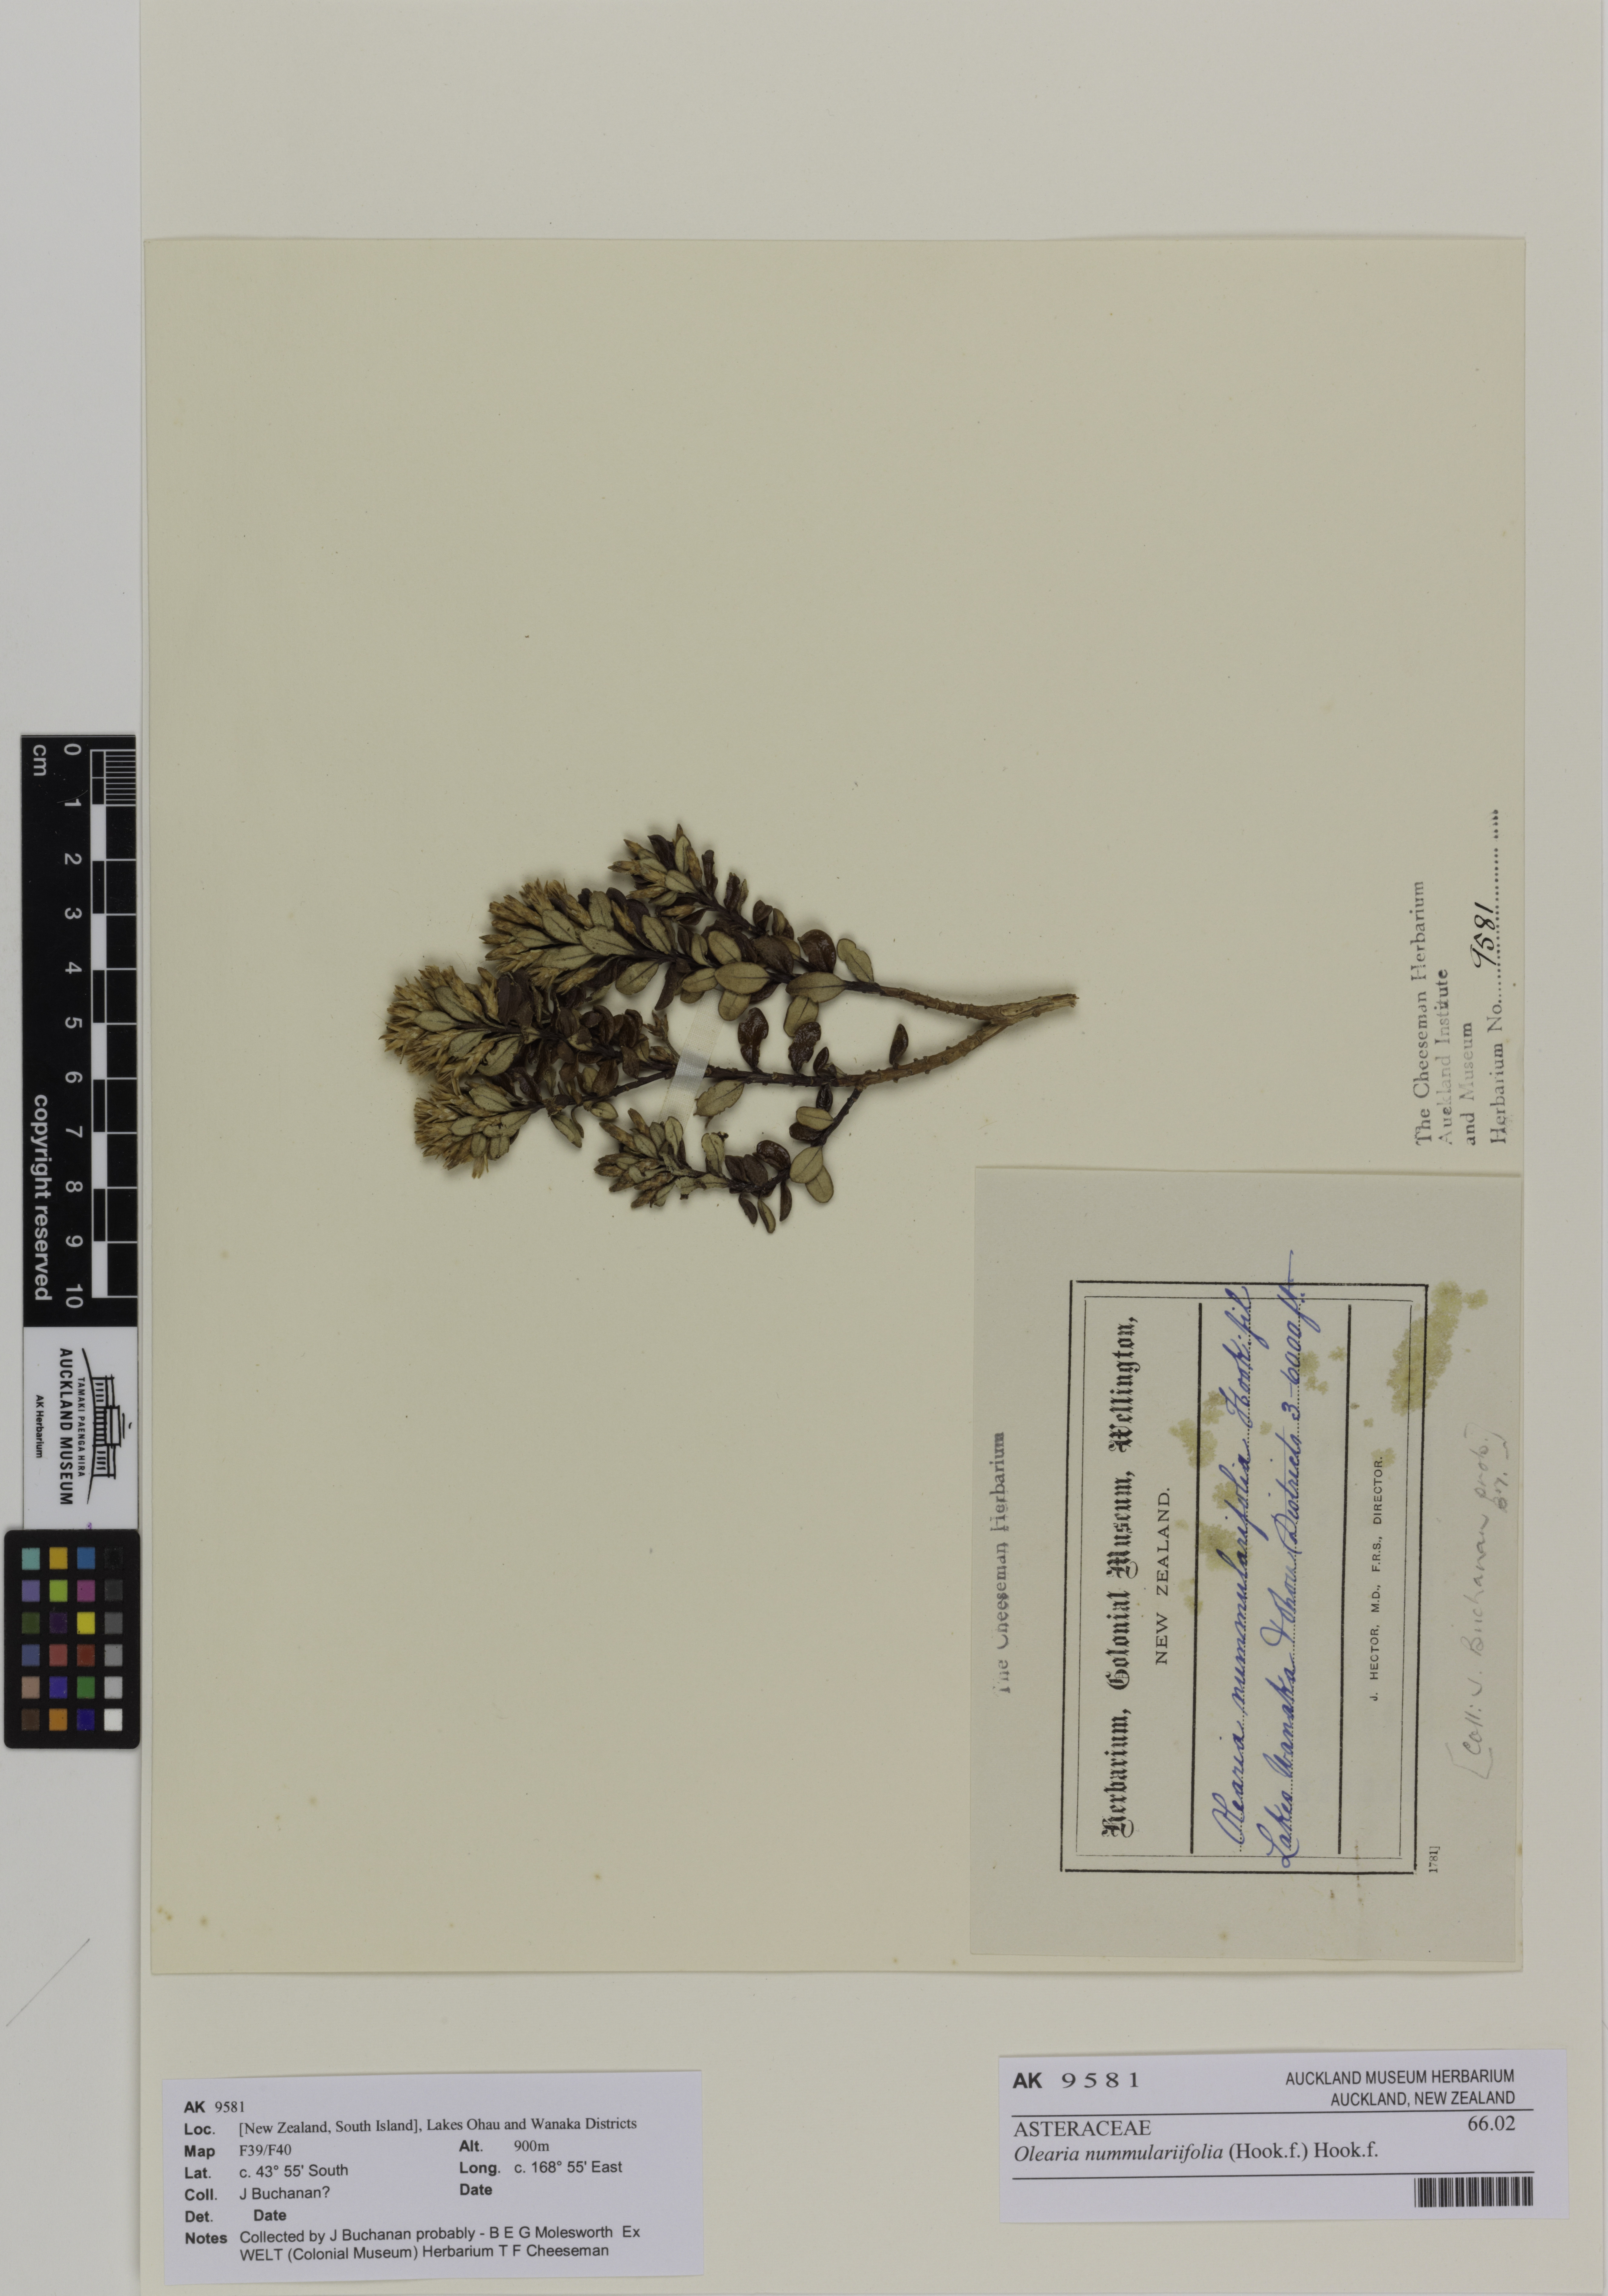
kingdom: Plantae
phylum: Tracheophyta
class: Magnoliopsida
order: Asterales
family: Asteraceae
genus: Olearia
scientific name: Olearia nummularifolia
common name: Sticky daisybush
